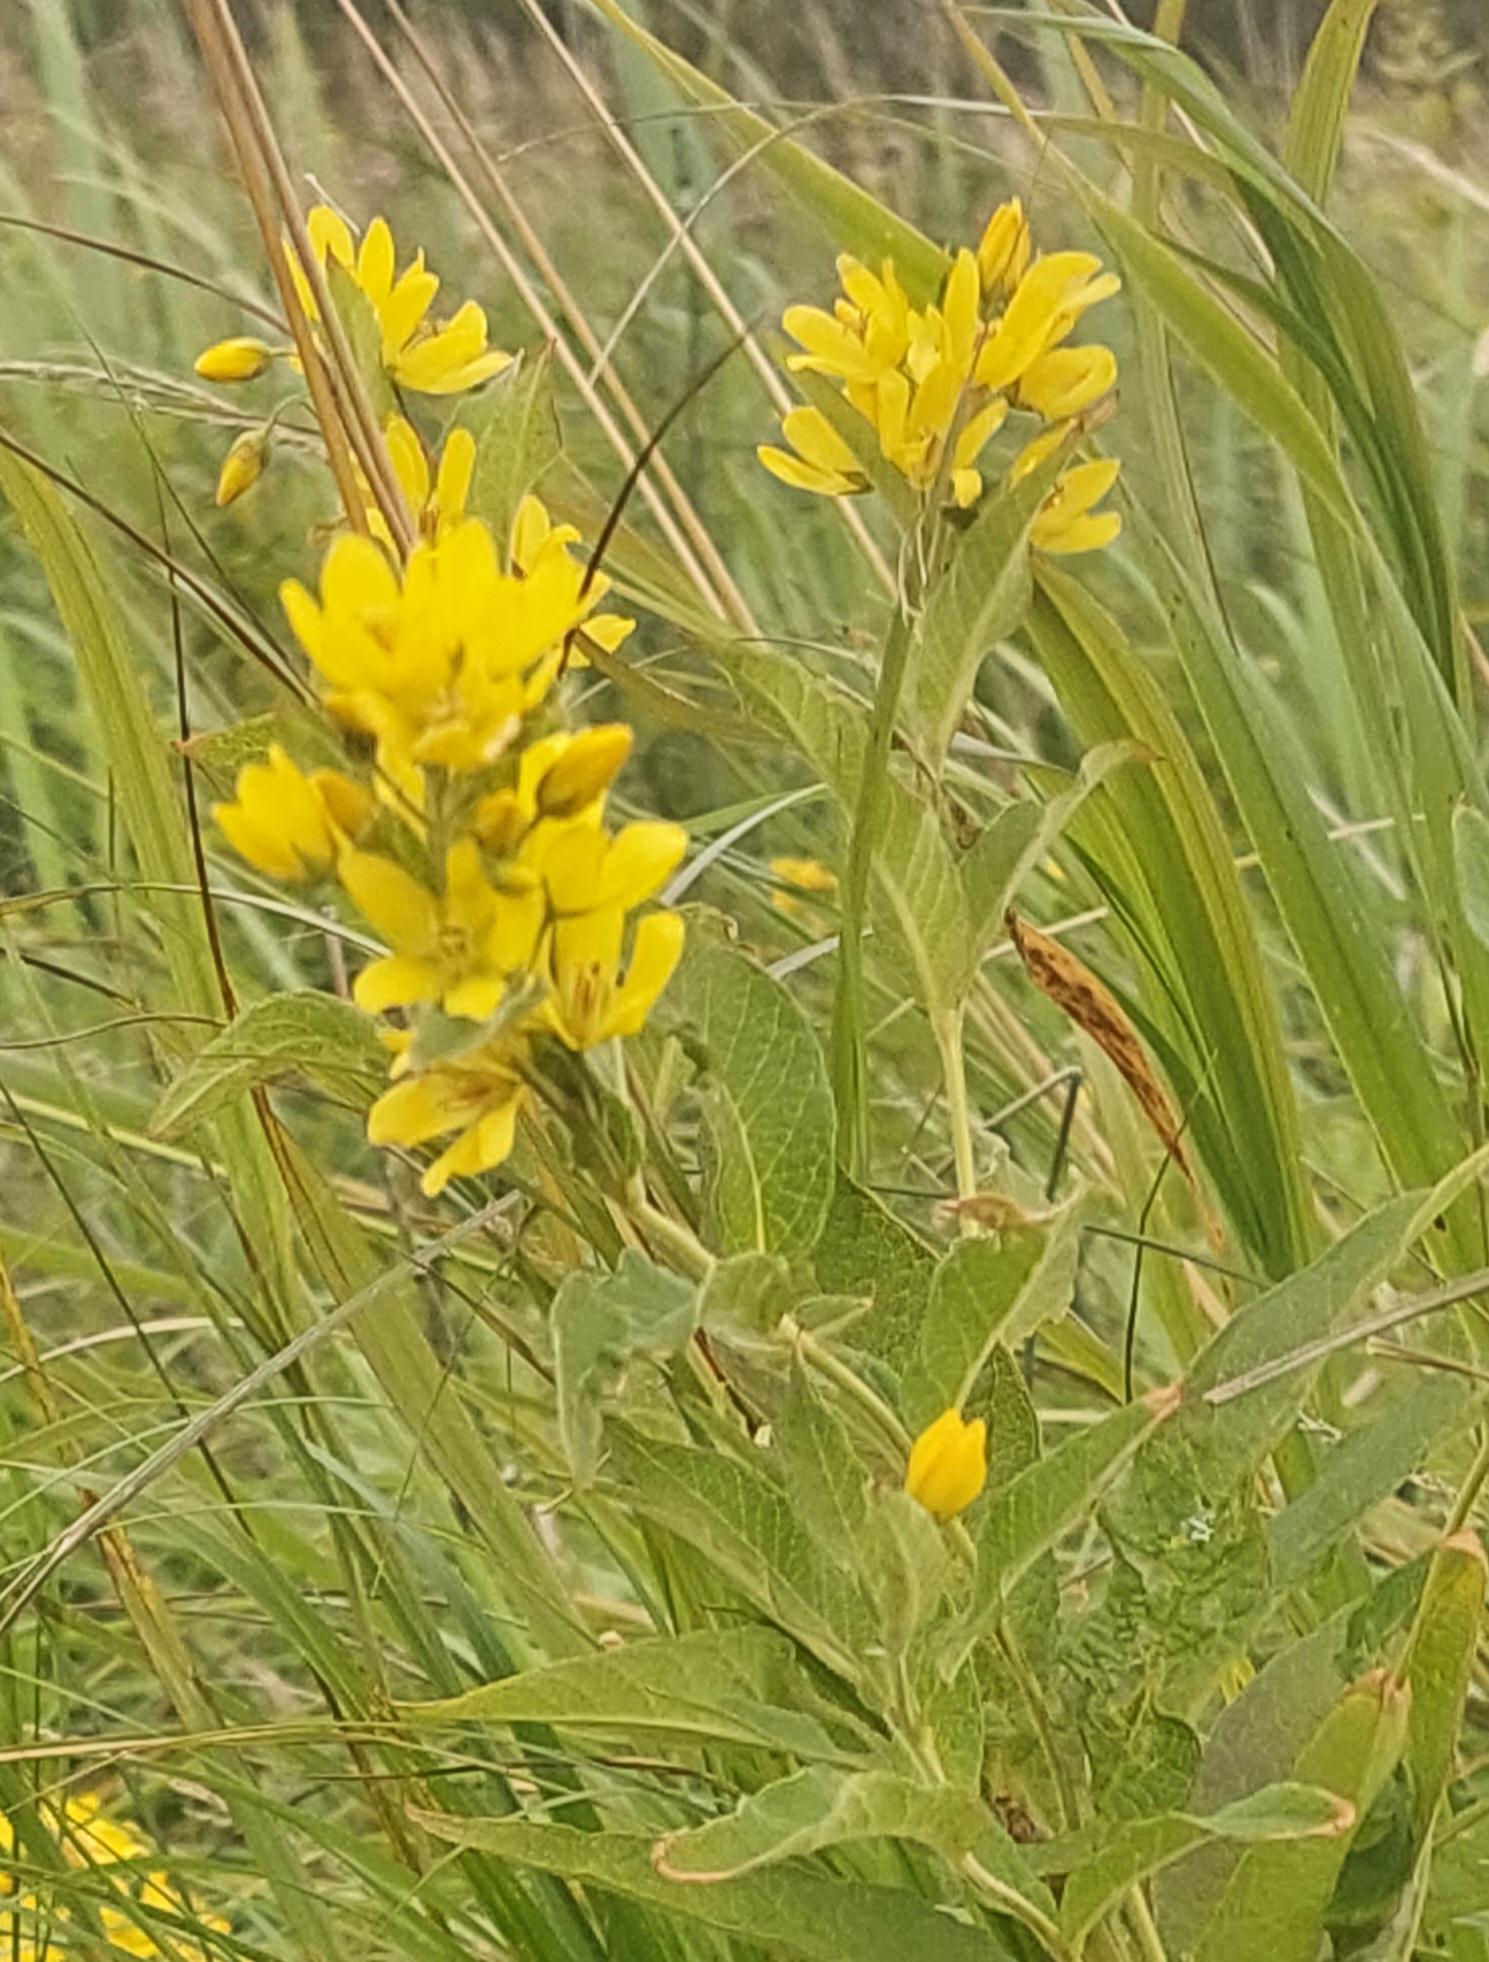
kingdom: Plantae
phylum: Tracheophyta
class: Magnoliopsida
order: Ericales
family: Primulaceae
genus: Lysimachia
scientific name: Lysimachia vulgaris
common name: Almindelig fredløs
